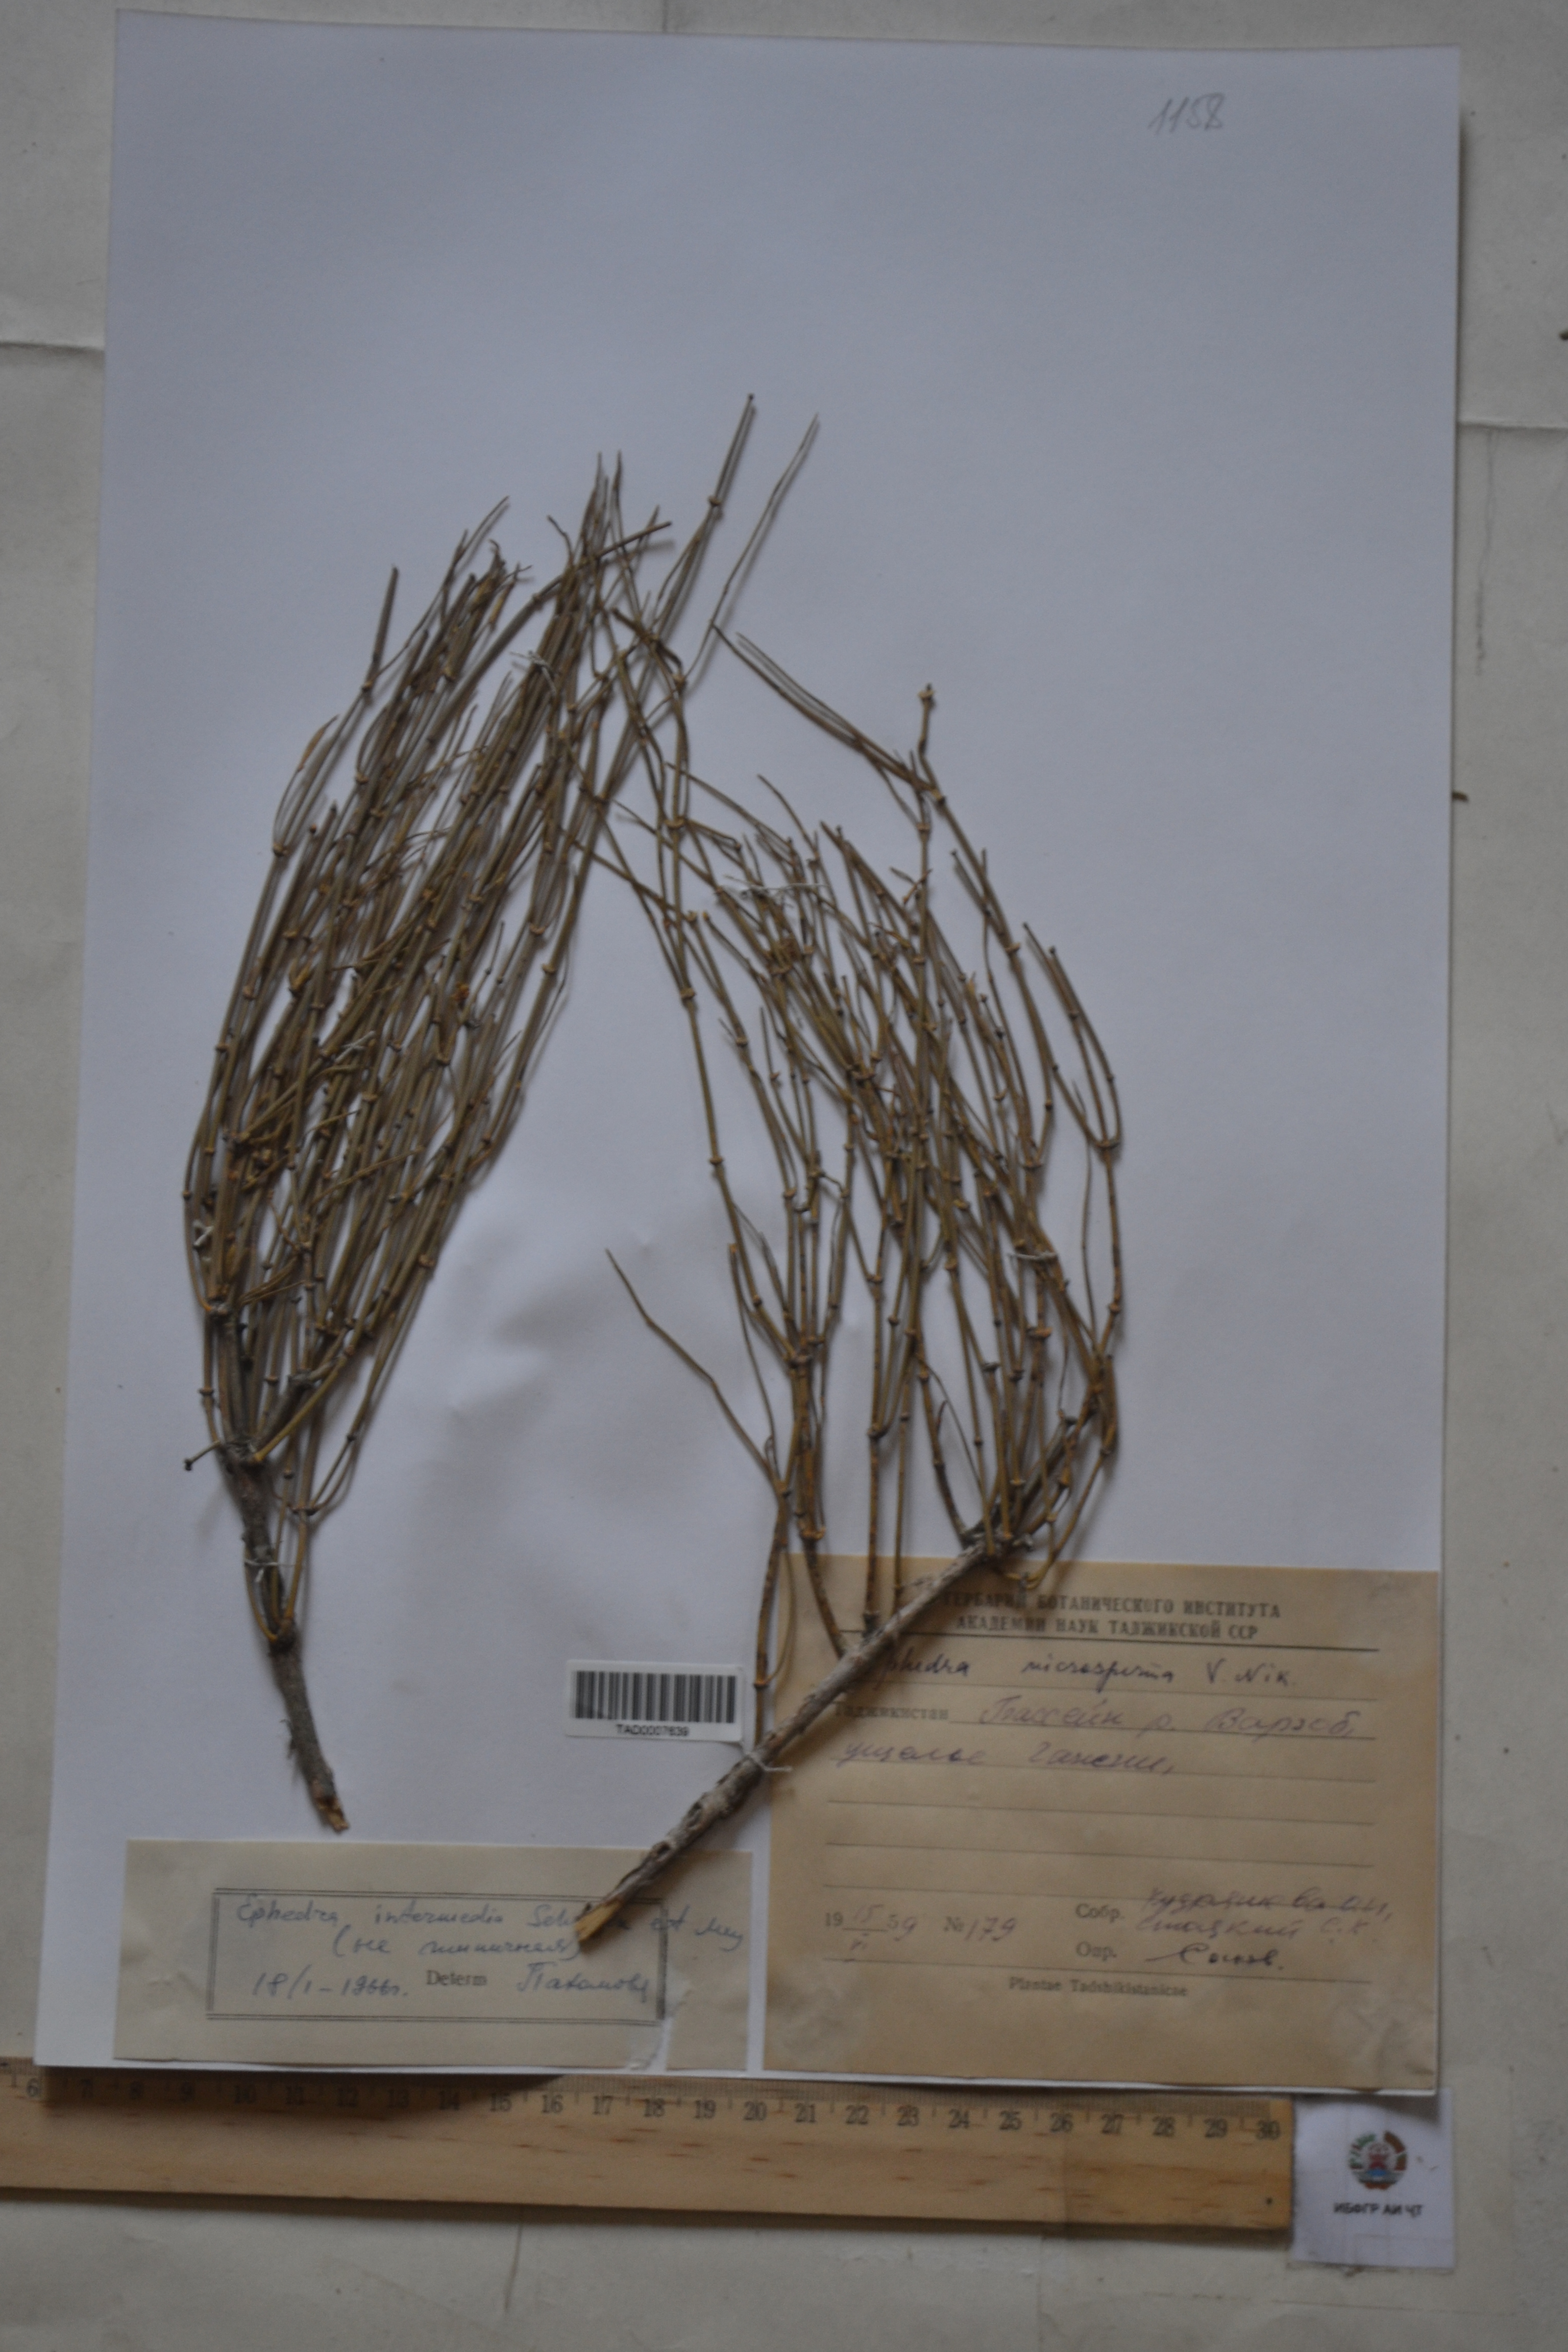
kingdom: Plantae
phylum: Tracheophyta
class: Gnetopsida
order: Ephedrales
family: Ephedraceae
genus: Ephedra
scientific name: Ephedra intermedia
